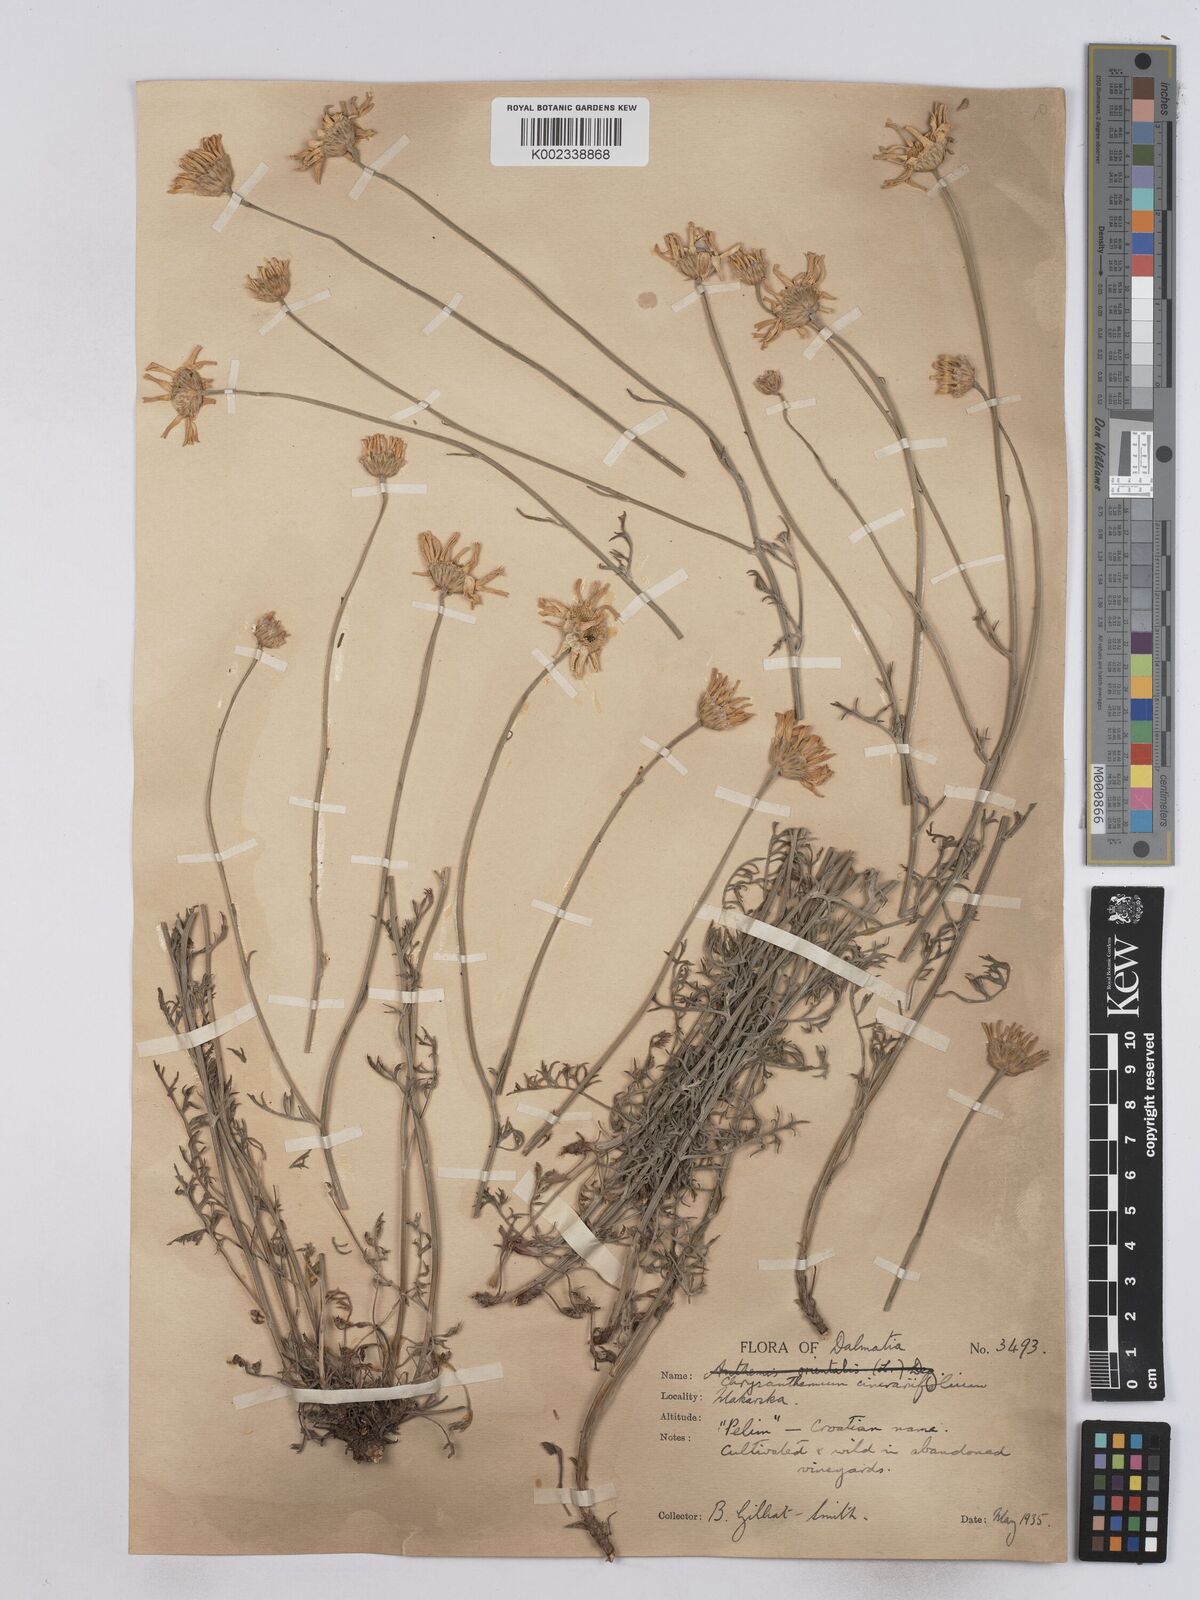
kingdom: Plantae
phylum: Tracheophyta
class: Magnoliopsida
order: Asterales
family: Asteraceae
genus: Tanacetum
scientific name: Tanacetum cinerariifolium
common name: Dalmatian pyrethrum
